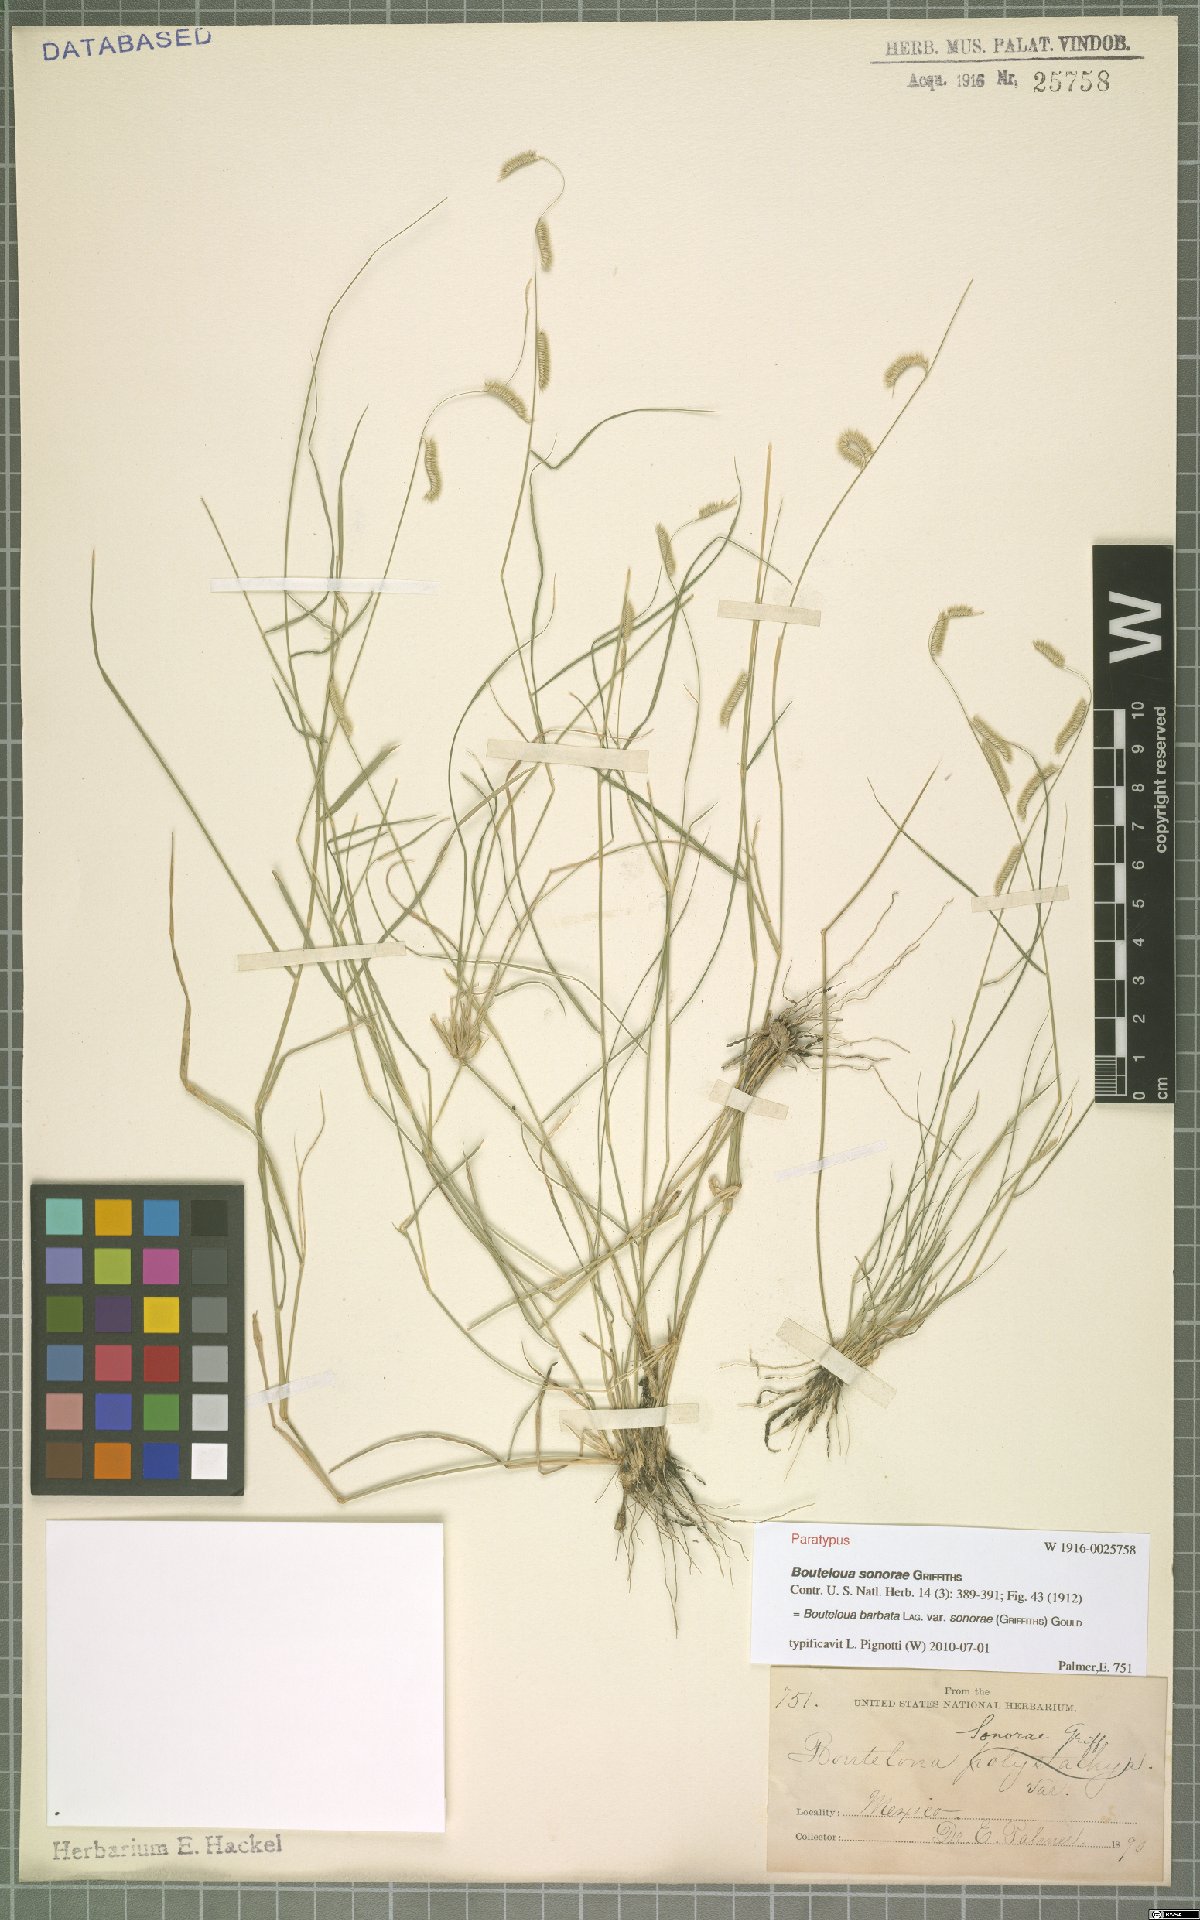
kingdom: Plantae
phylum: Tracheophyta
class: Liliopsida
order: Poales
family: Poaceae
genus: Bouteloua
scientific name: Bouteloua barbata
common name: Six-weeks grama
